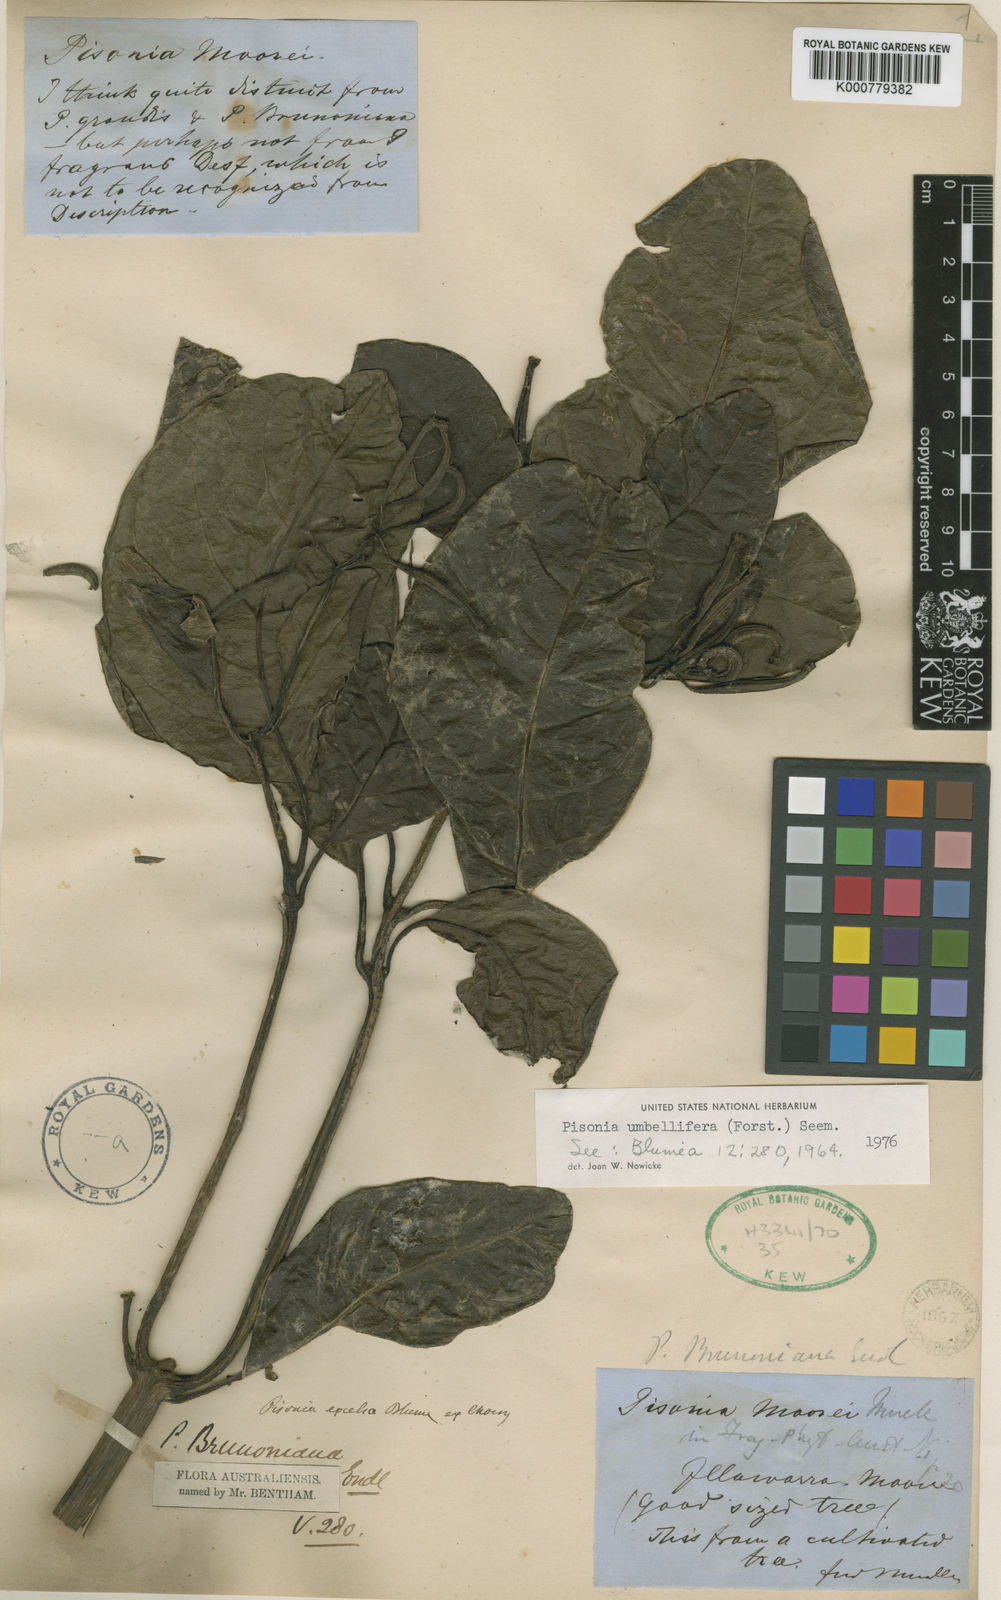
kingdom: Plantae
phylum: Tracheophyta
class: Magnoliopsida
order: Caryophyllales
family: Nyctaginaceae
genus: Ceodes
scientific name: Ceodes umbellifera
